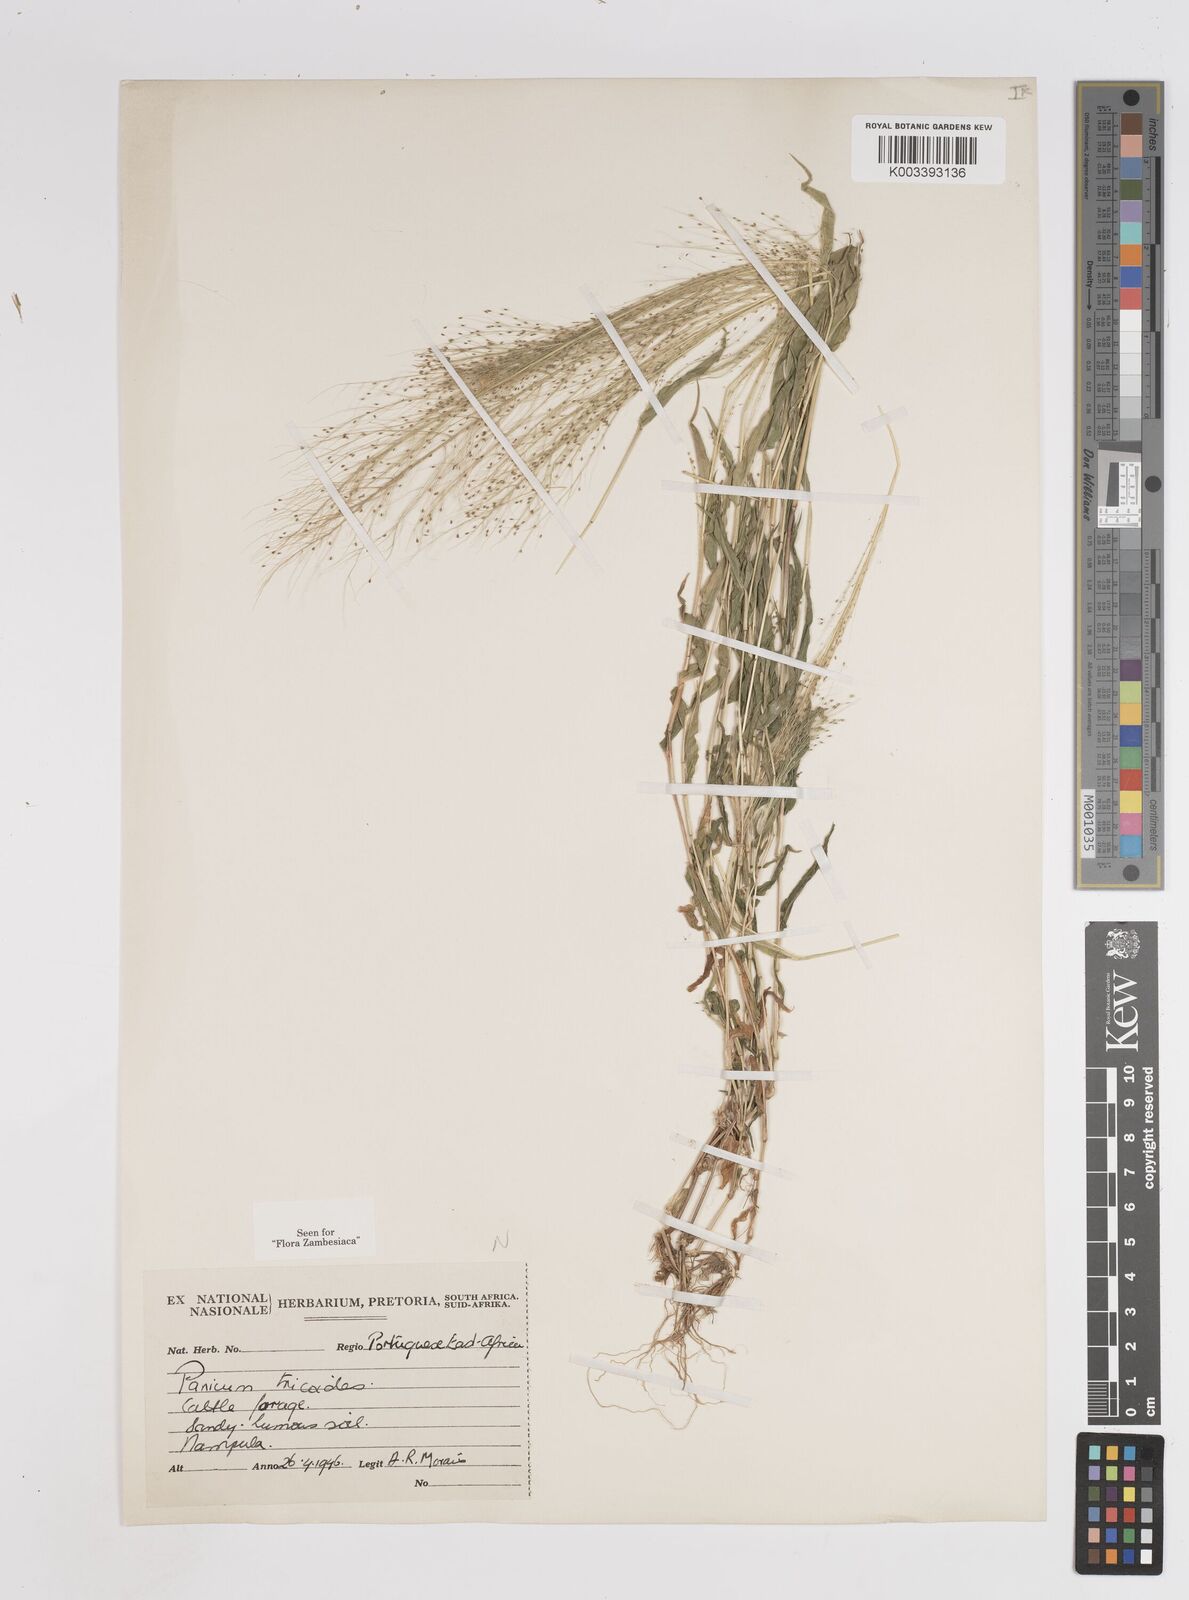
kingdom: Plantae
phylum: Tracheophyta
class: Liliopsida
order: Poales
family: Poaceae
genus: Panicum
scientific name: Panicum trichoides
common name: Tickle grass
